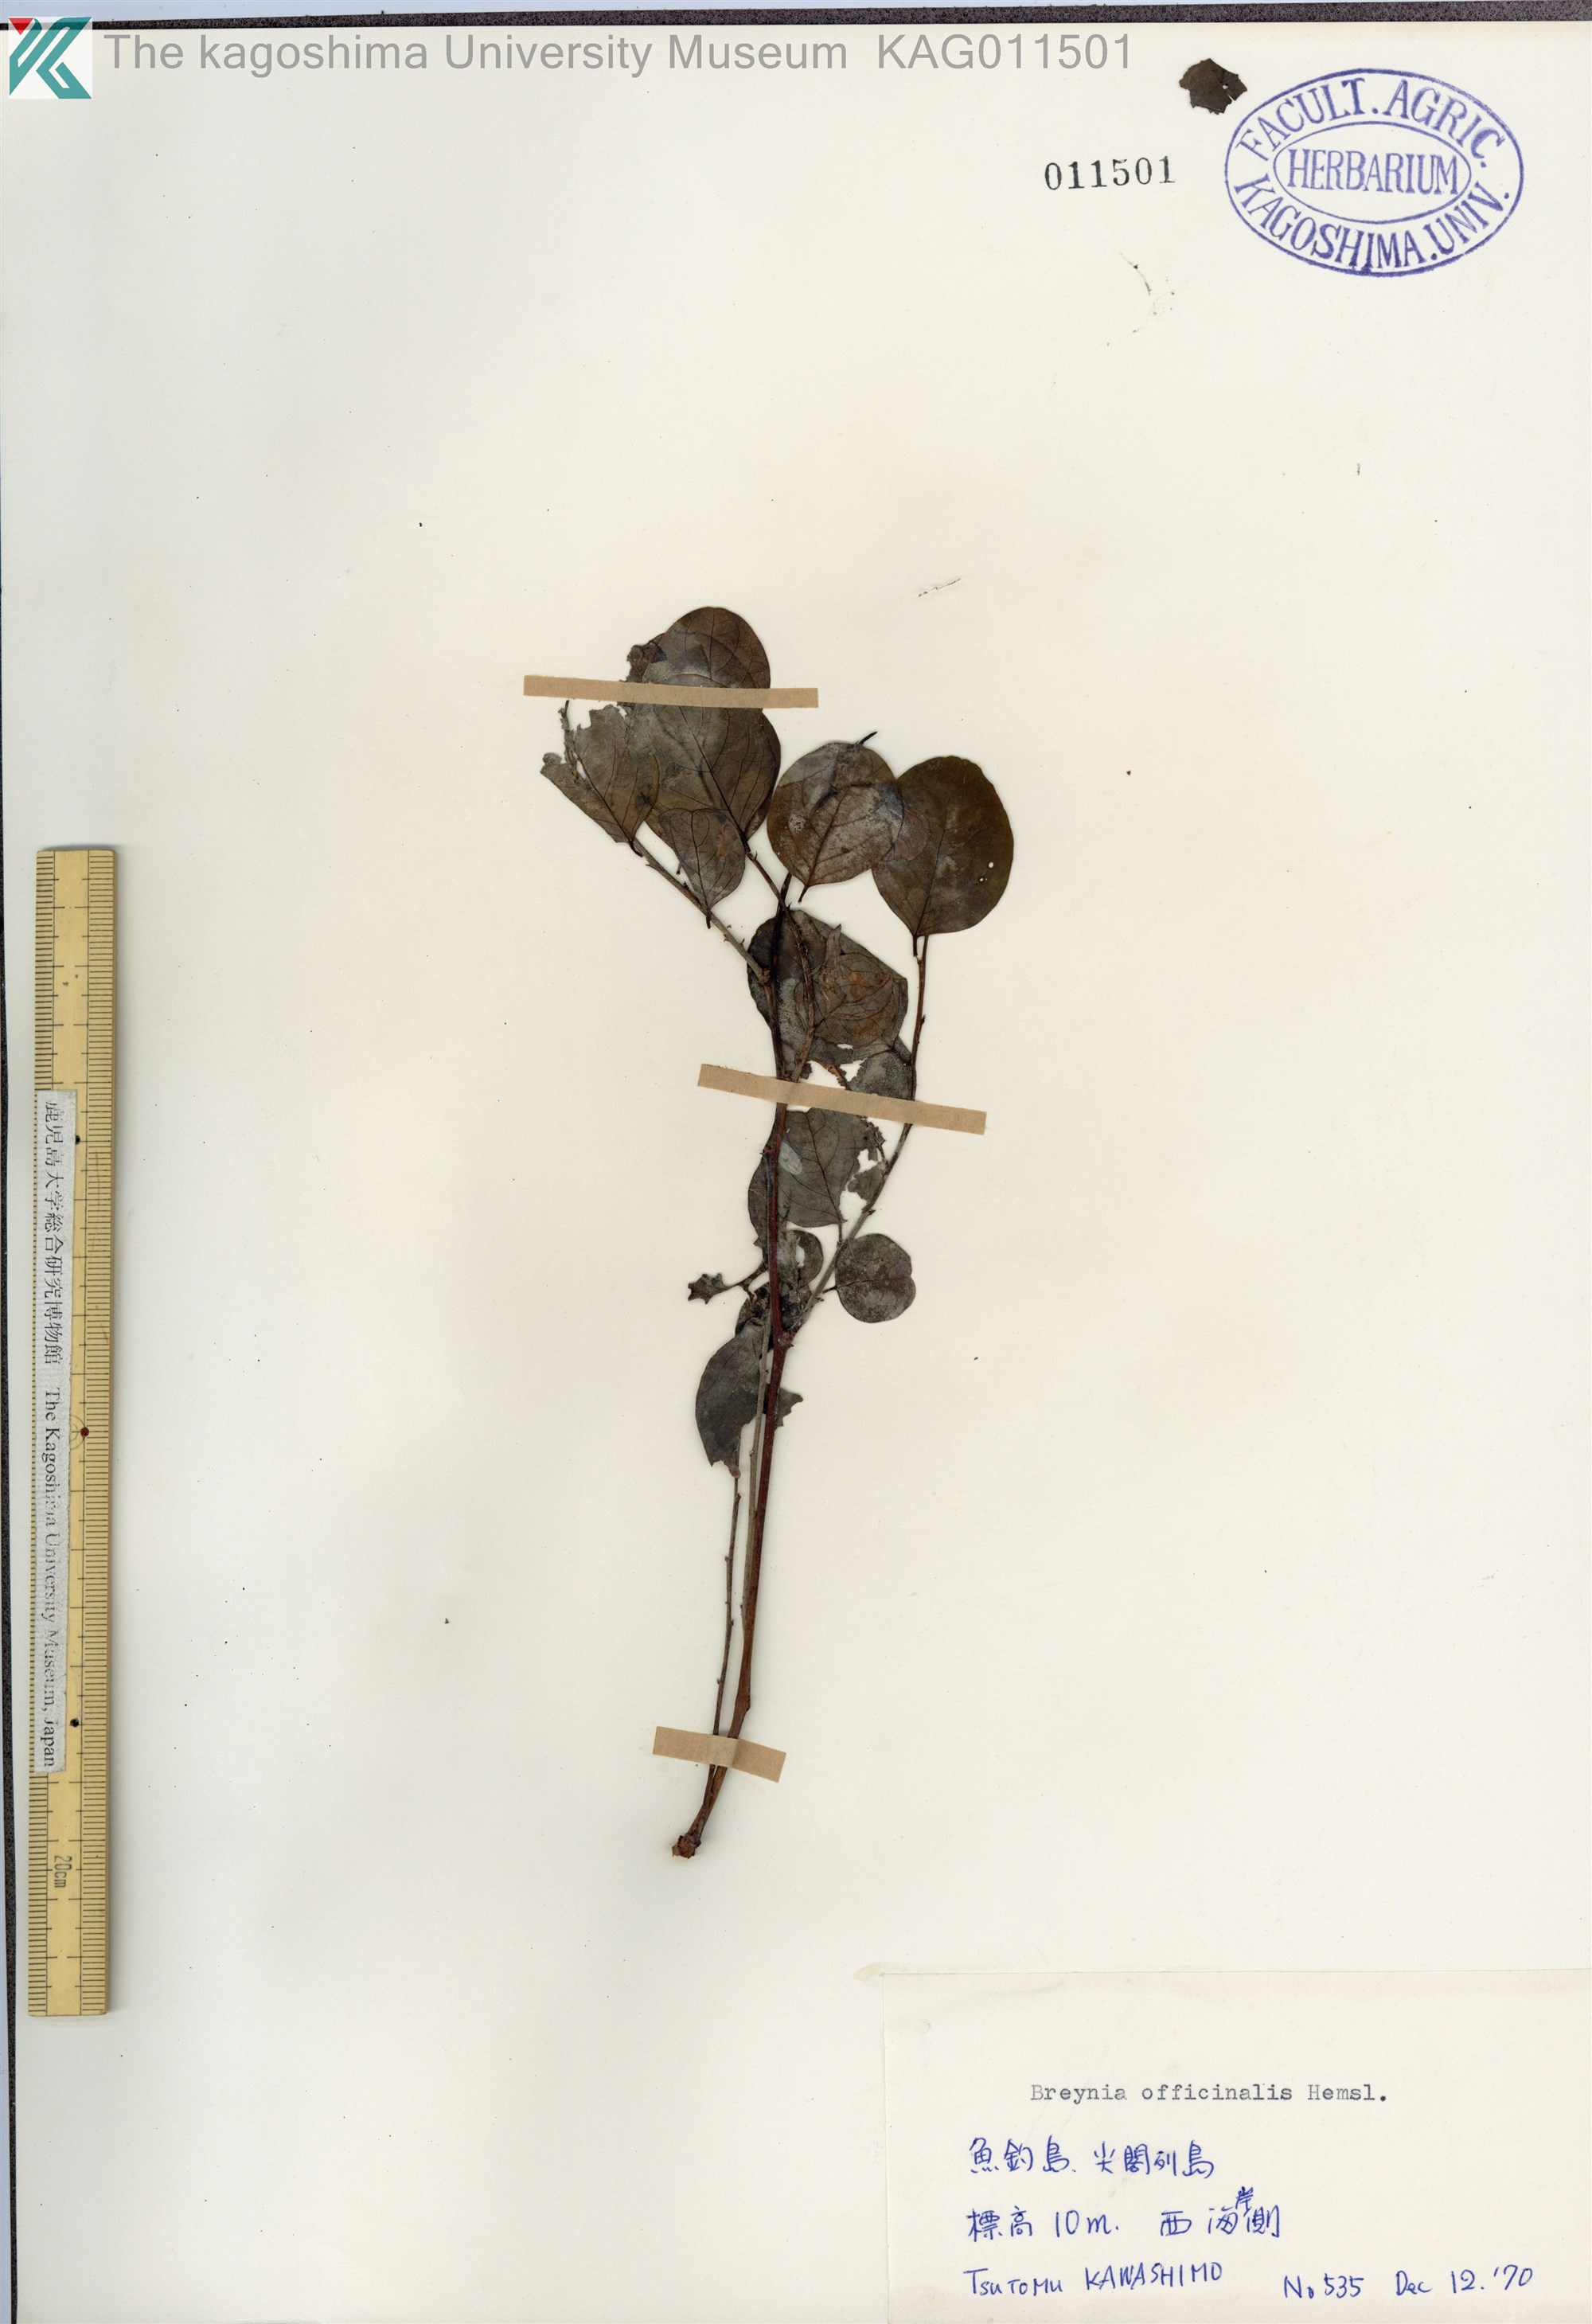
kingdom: Plantae
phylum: Tracheophyta
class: Magnoliopsida
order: Malpighiales
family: Phyllanthaceae
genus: Breynia
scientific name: Breynia vitis-idaea
